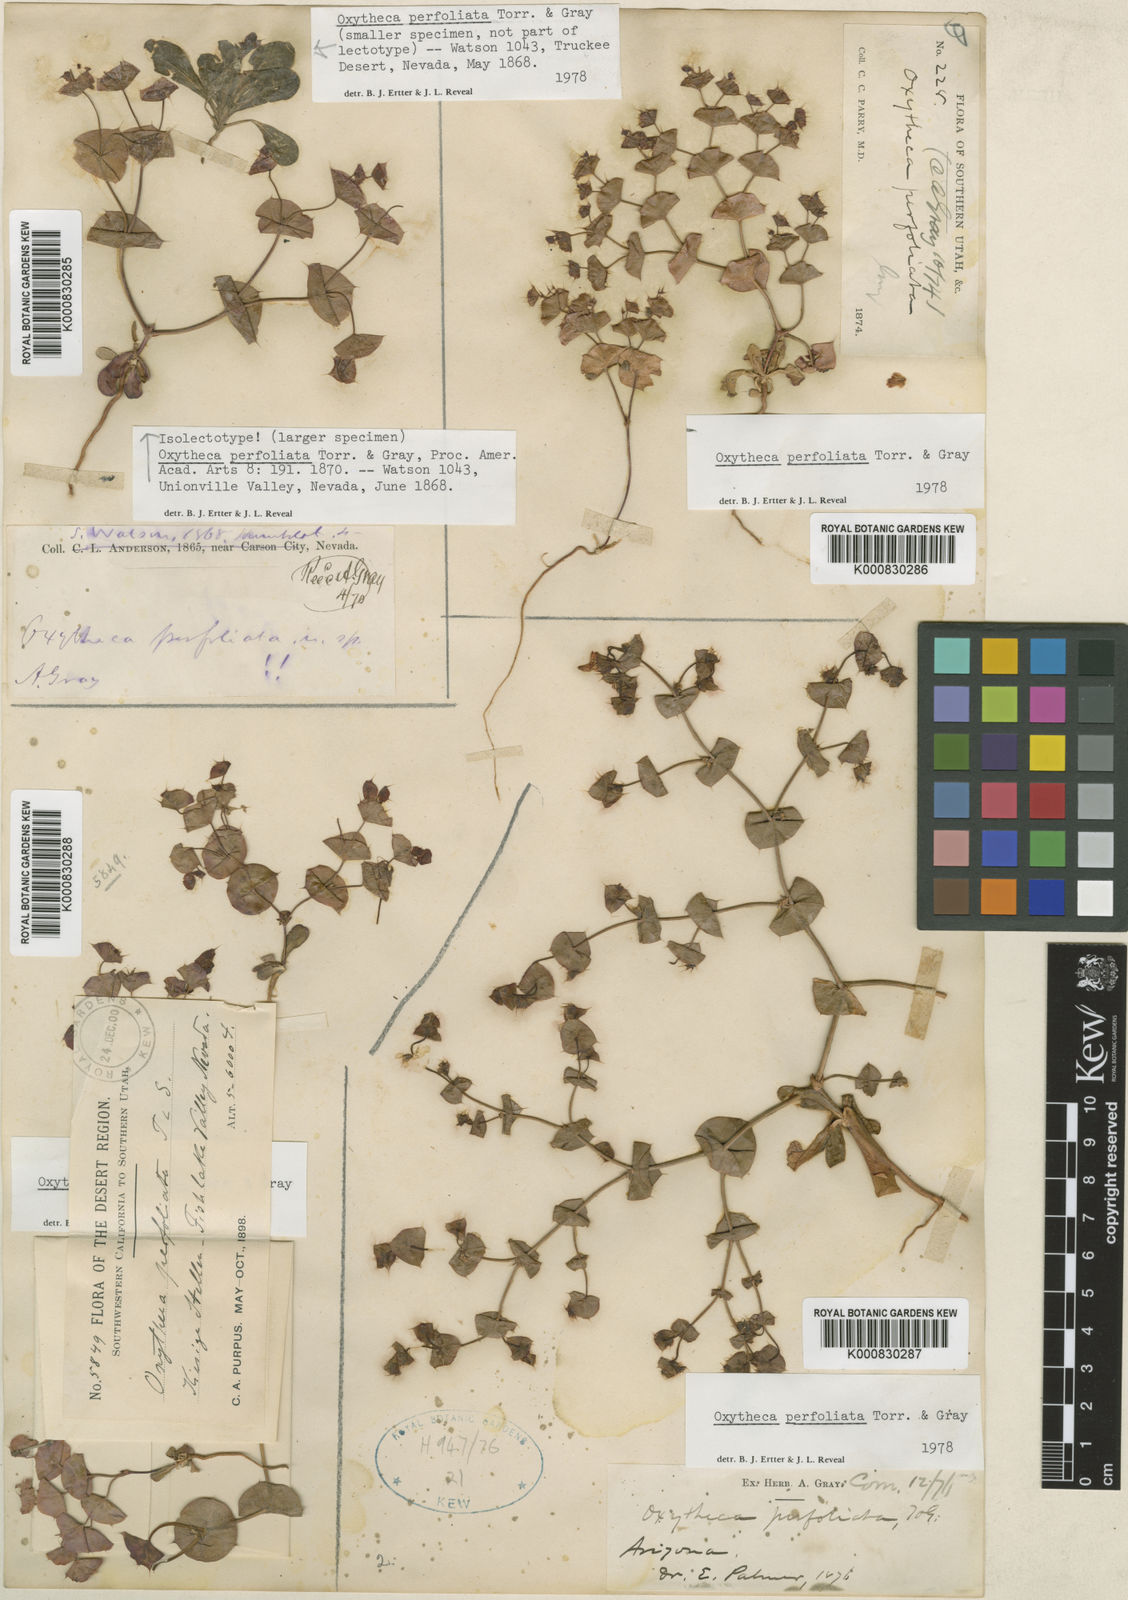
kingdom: Plantae
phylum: Tracheophyta
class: Magnoliopsida
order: Caryophyllales
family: Polygonaceae
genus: Oxytheca
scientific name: Oxytheca perfoliata
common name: Round-leaf puncturebract
